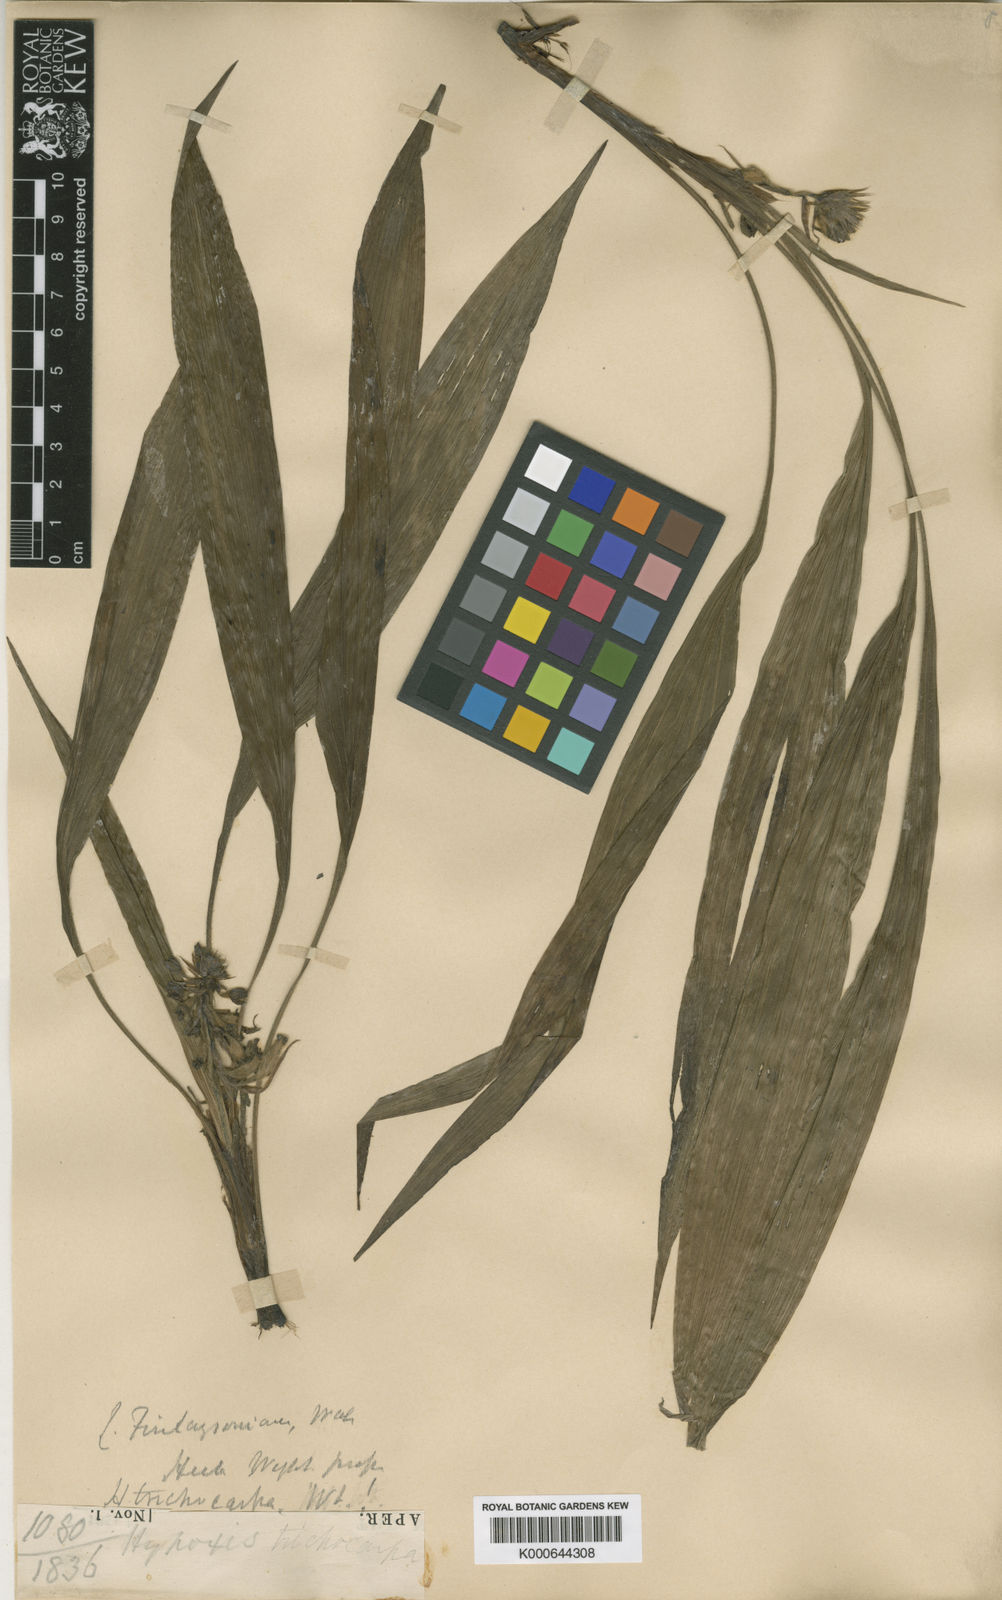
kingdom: Plantae
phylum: Tracheophyta
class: Liliopsida
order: Asparagales
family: Hypoxidaceae
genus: Curculigo
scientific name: Curculigo trichocarpa
